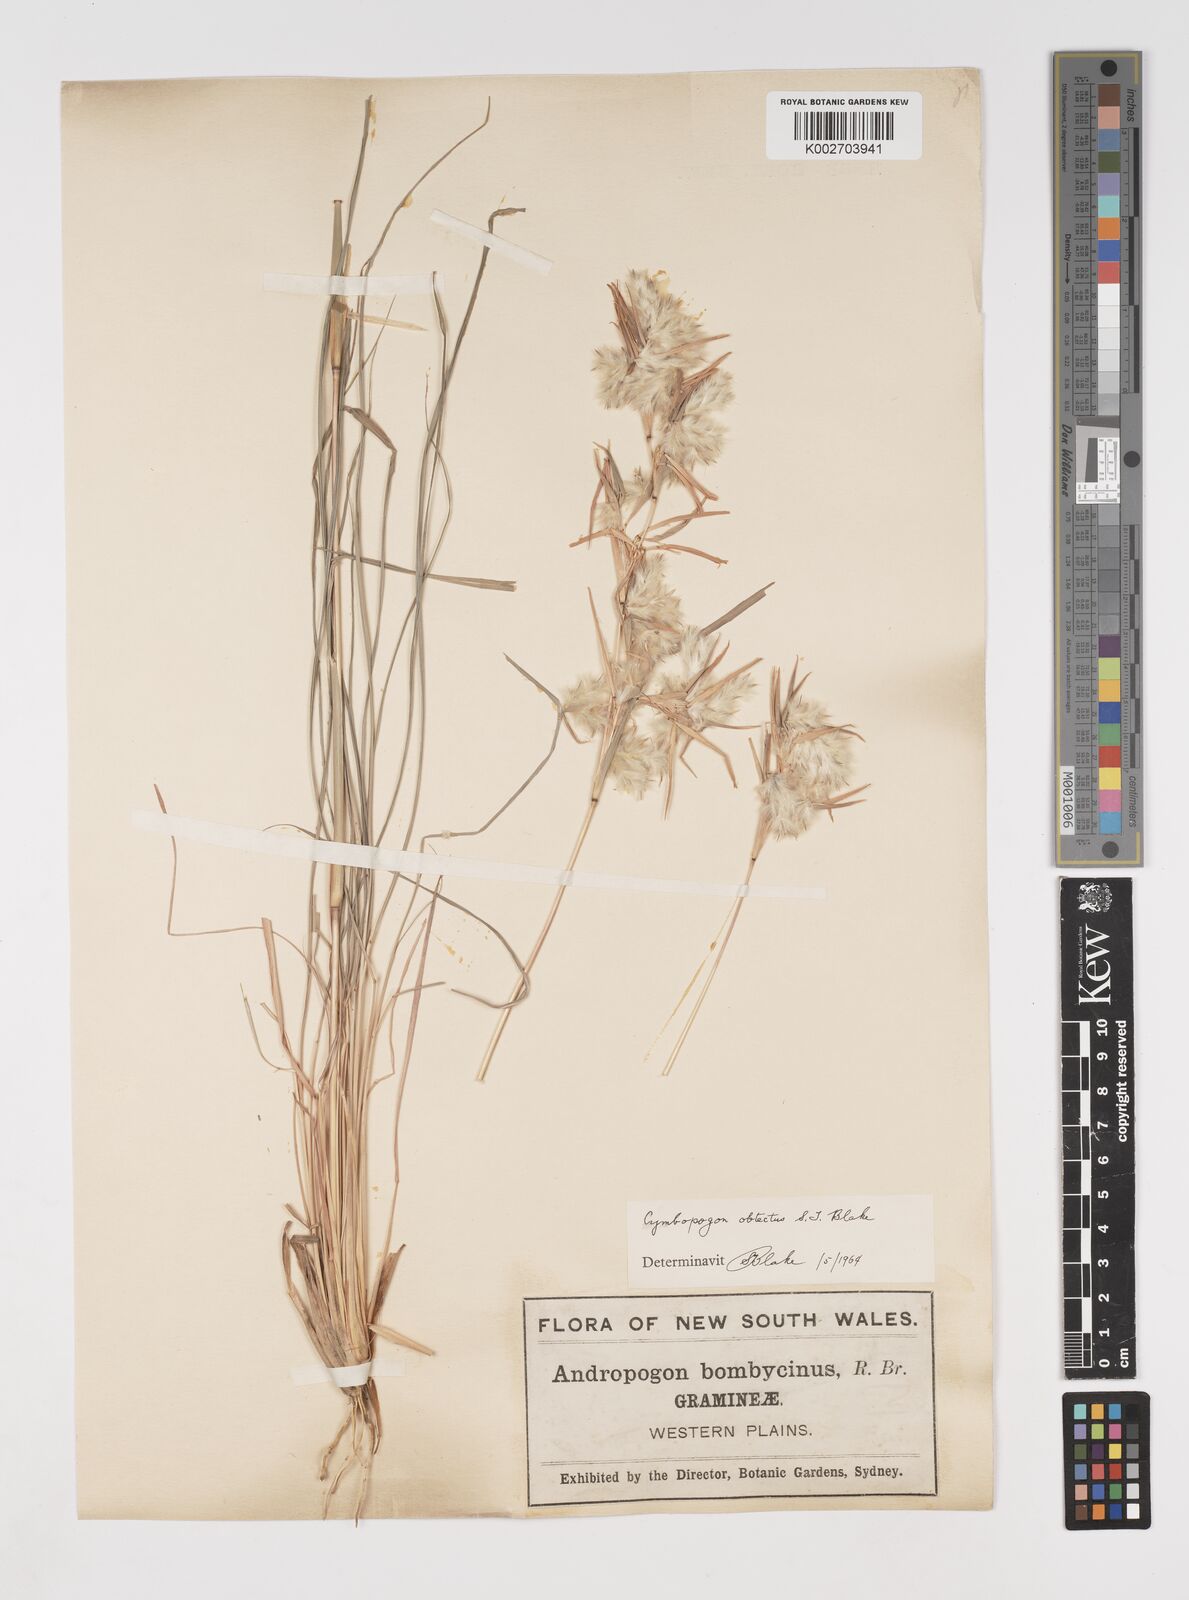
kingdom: Plantae
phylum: Tracheophyta
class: Liliopsida
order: Poales
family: Poaceae
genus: Cymbopogon
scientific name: Cymbopogon obtectus
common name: Silky heads
